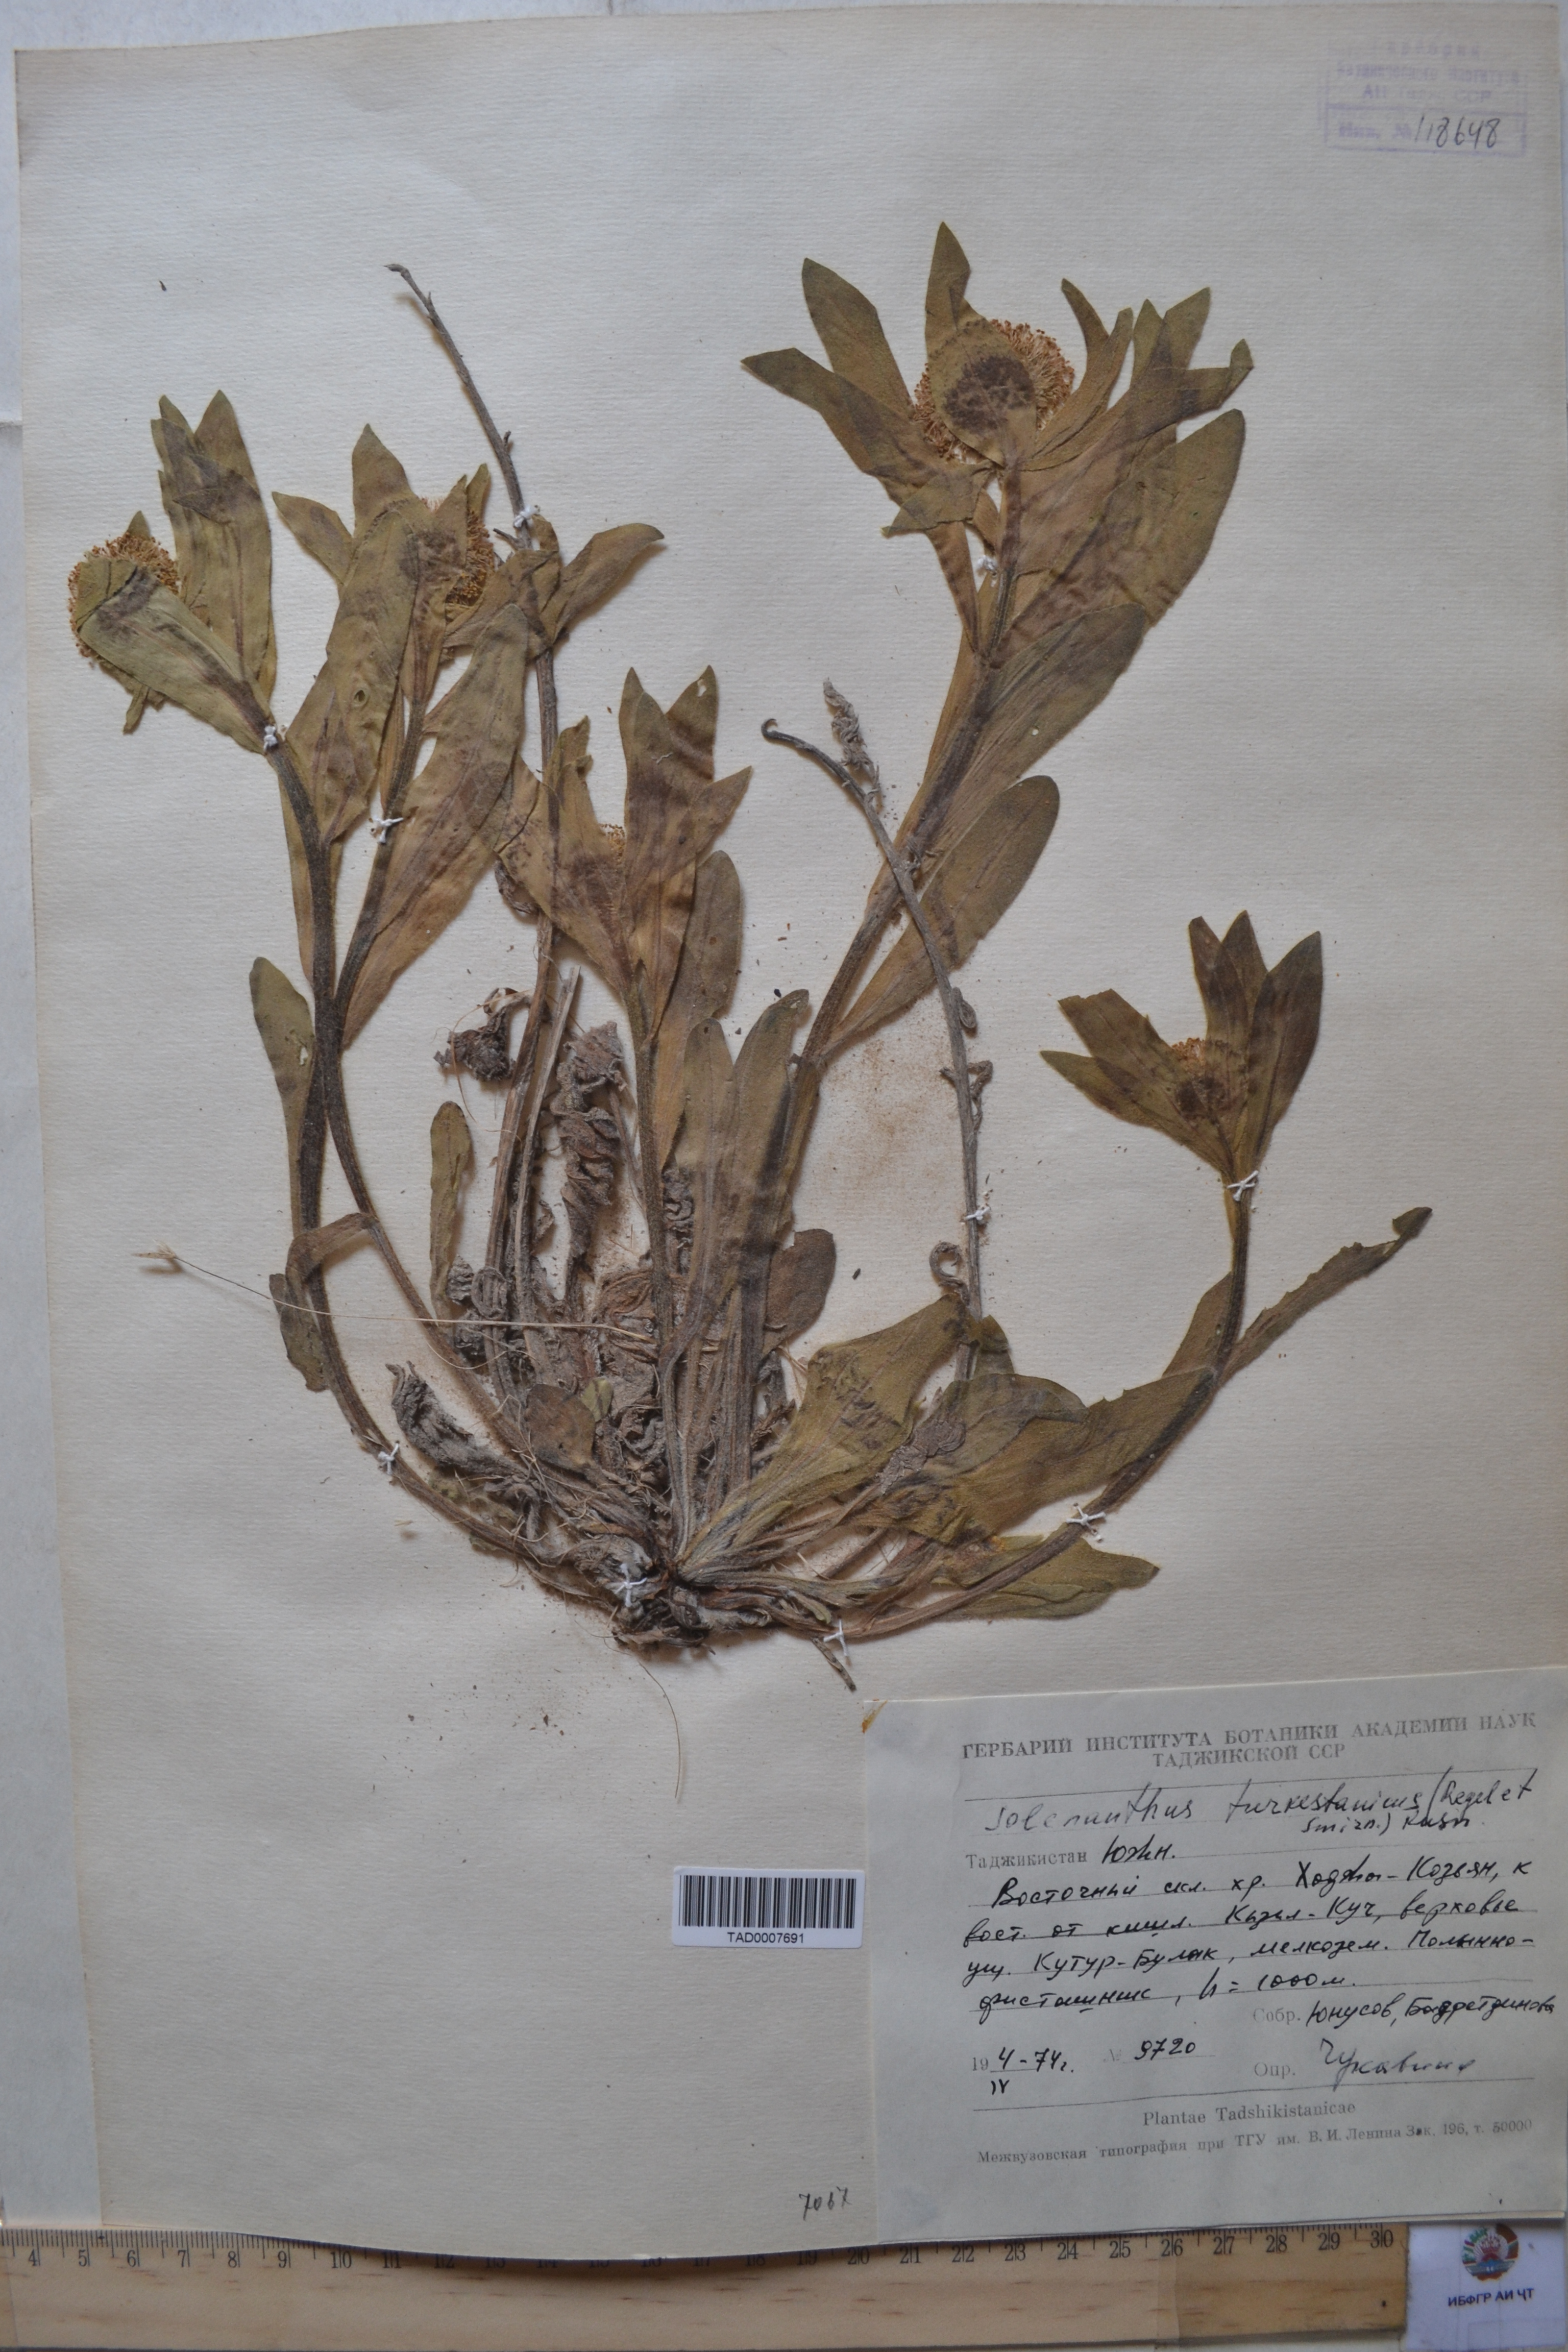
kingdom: Plantae
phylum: Tracheophyta
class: Magnoliopsida
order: Boraginales
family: Boraginaceae
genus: Solenanthus
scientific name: Solenanthus turkestanicus
